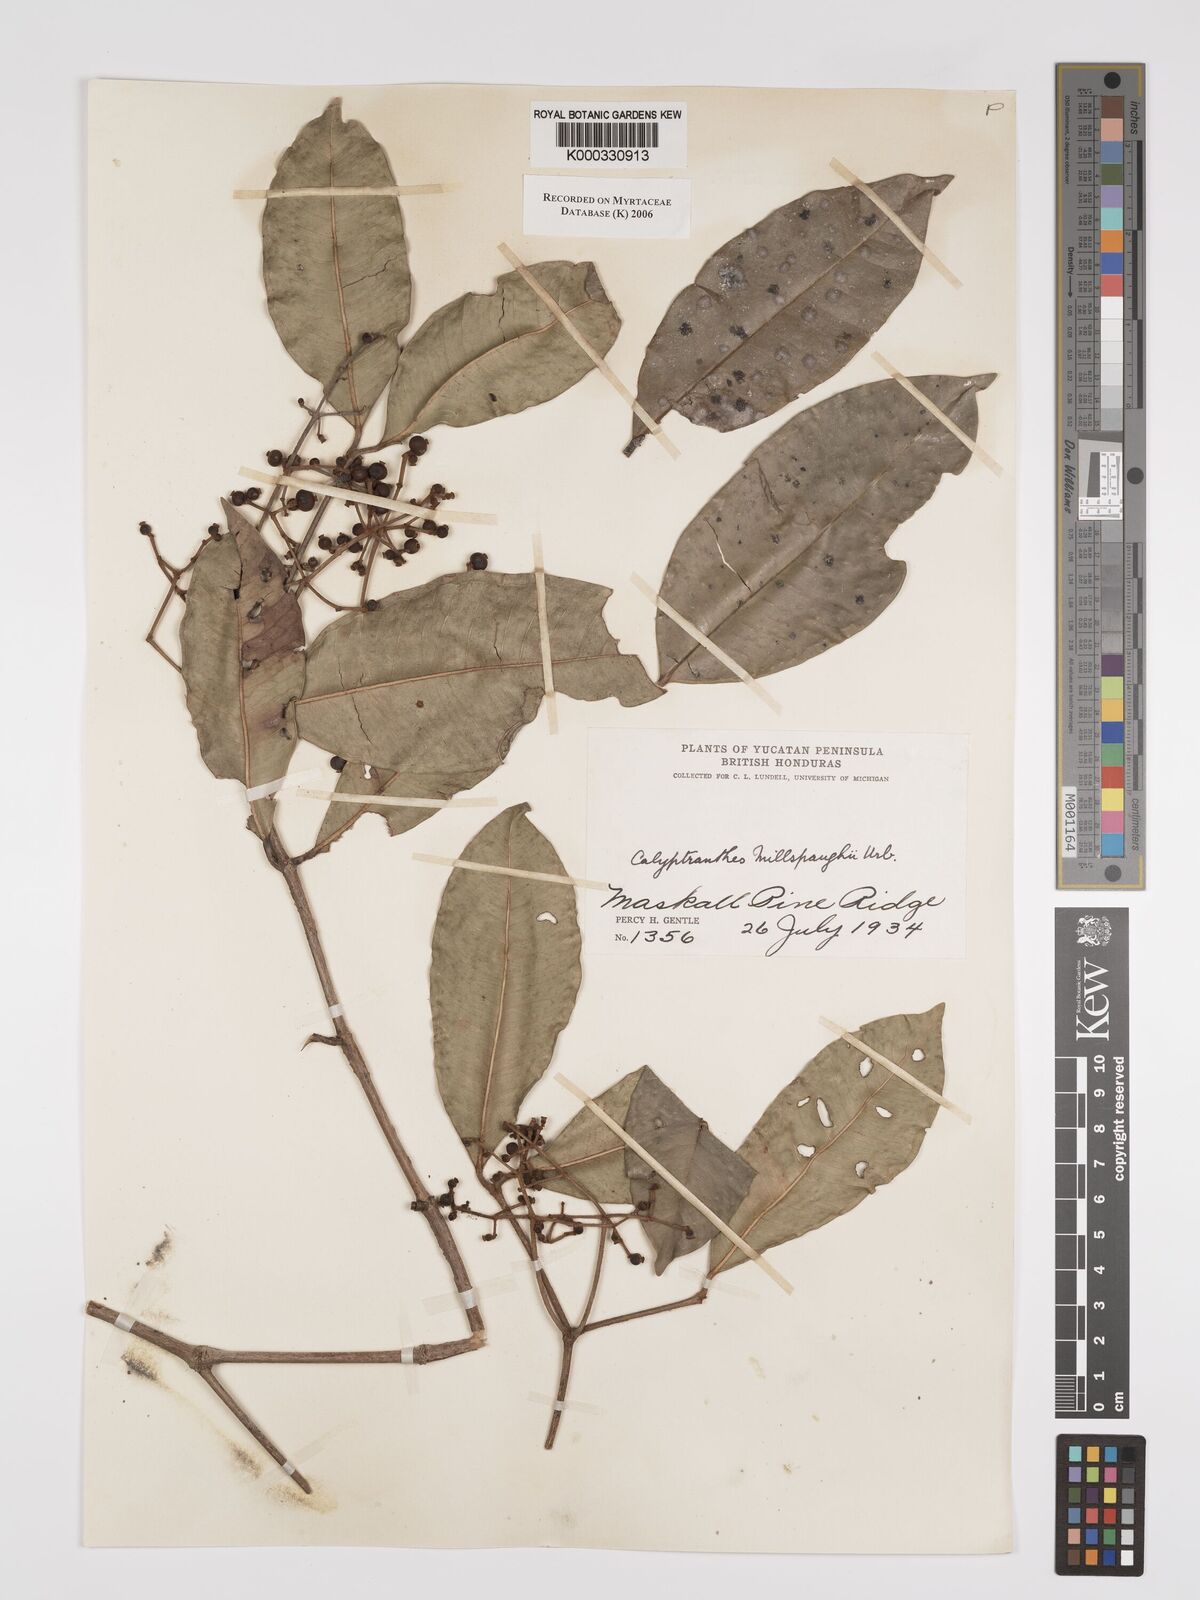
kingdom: Plantae
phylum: Tracheophyta
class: Magnoliopsida
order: Myrtales
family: Myrtaceae
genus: Myrcia
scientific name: Myrcia millspaughii
